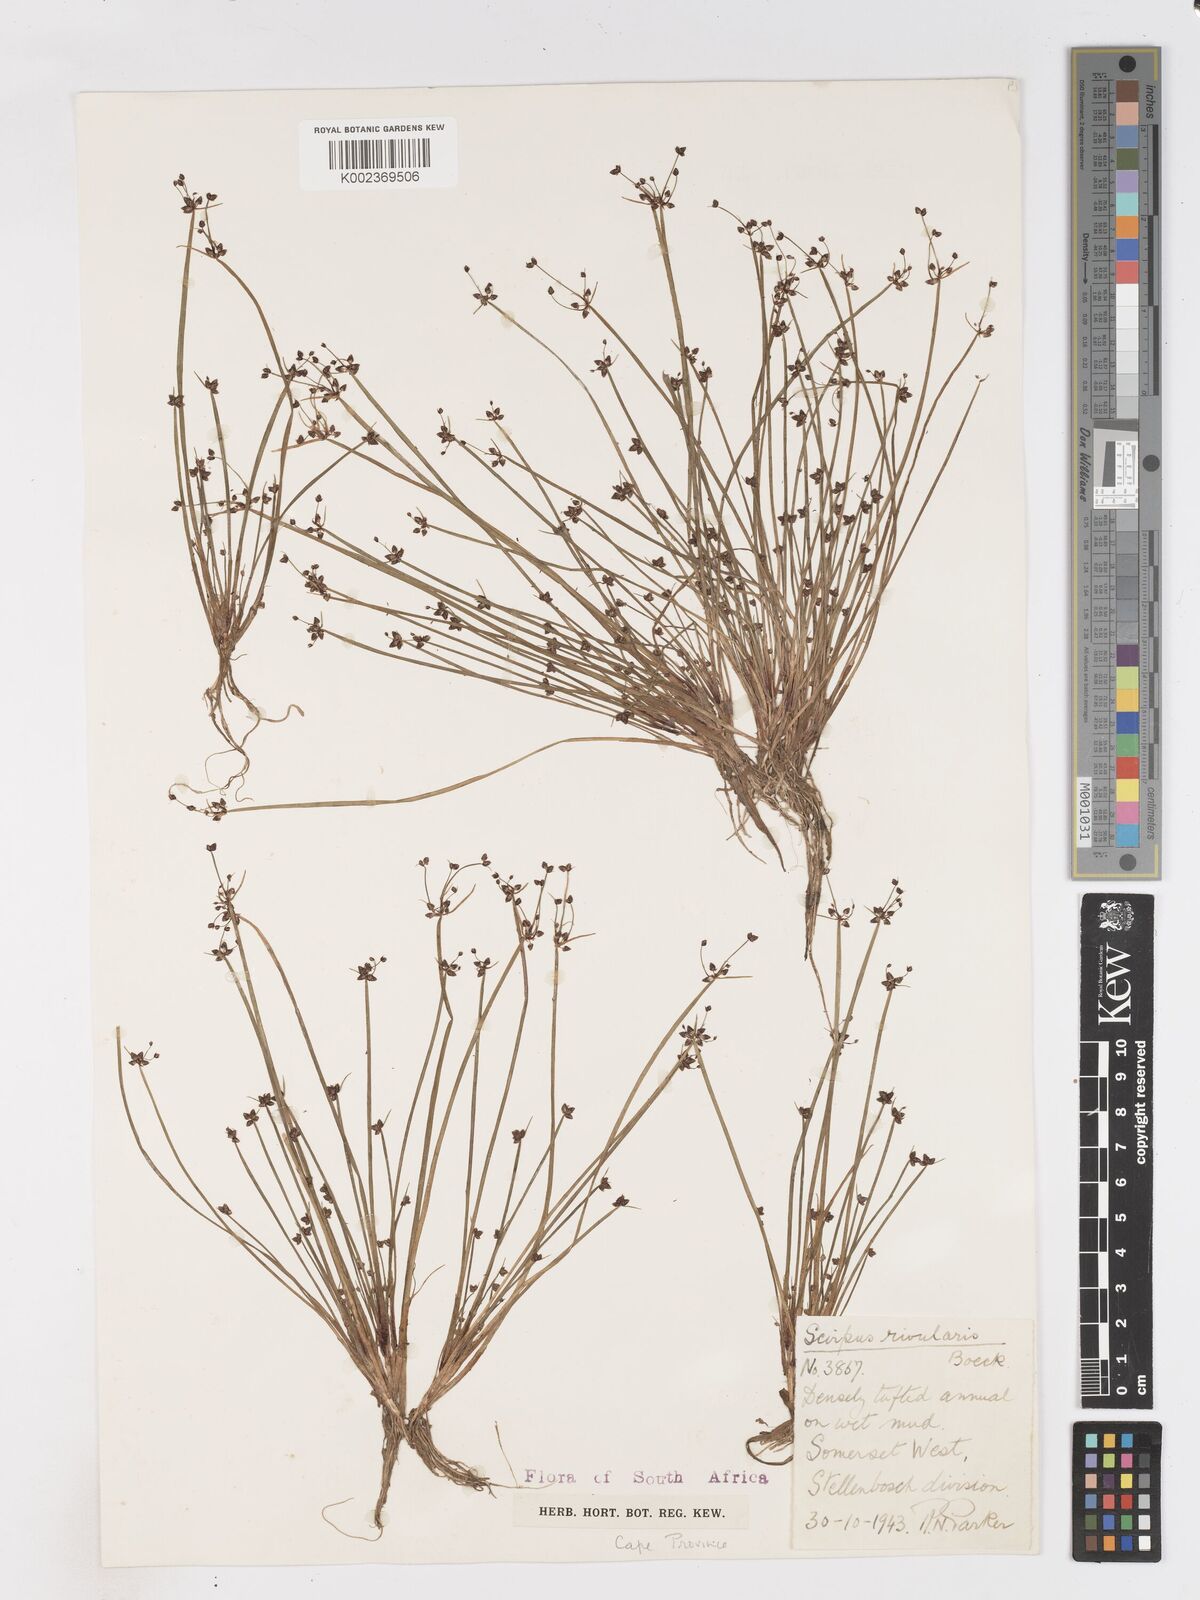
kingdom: Plantae
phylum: Tracheophyta
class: Liliopsida
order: Poales
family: Cyperaceae
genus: Isolepis
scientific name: Isolepis natans
